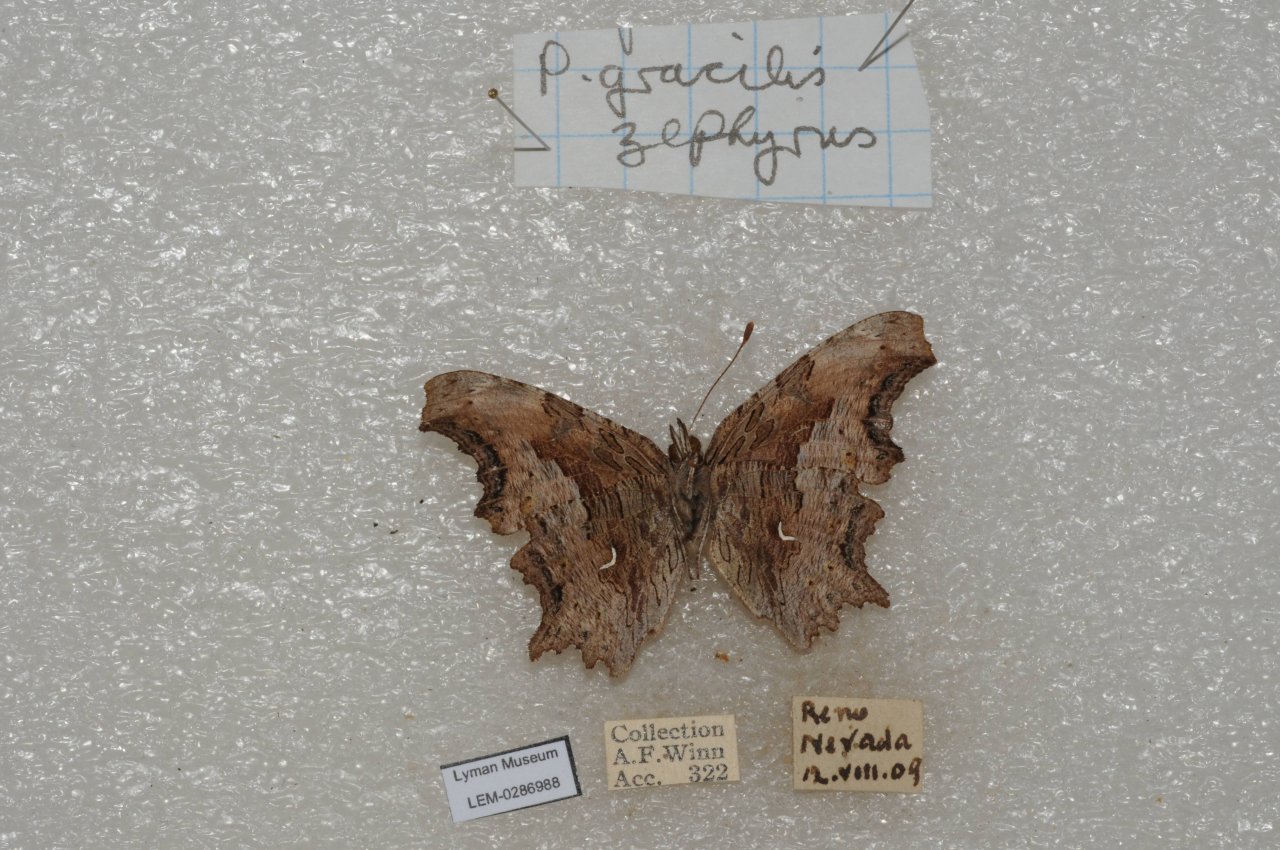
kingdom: Animalia
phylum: Arthropoda
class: Insecta
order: Lepidoptera
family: Nymphalidae
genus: Polygonia
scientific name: Polygonia gracilis
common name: Hoary Comma
